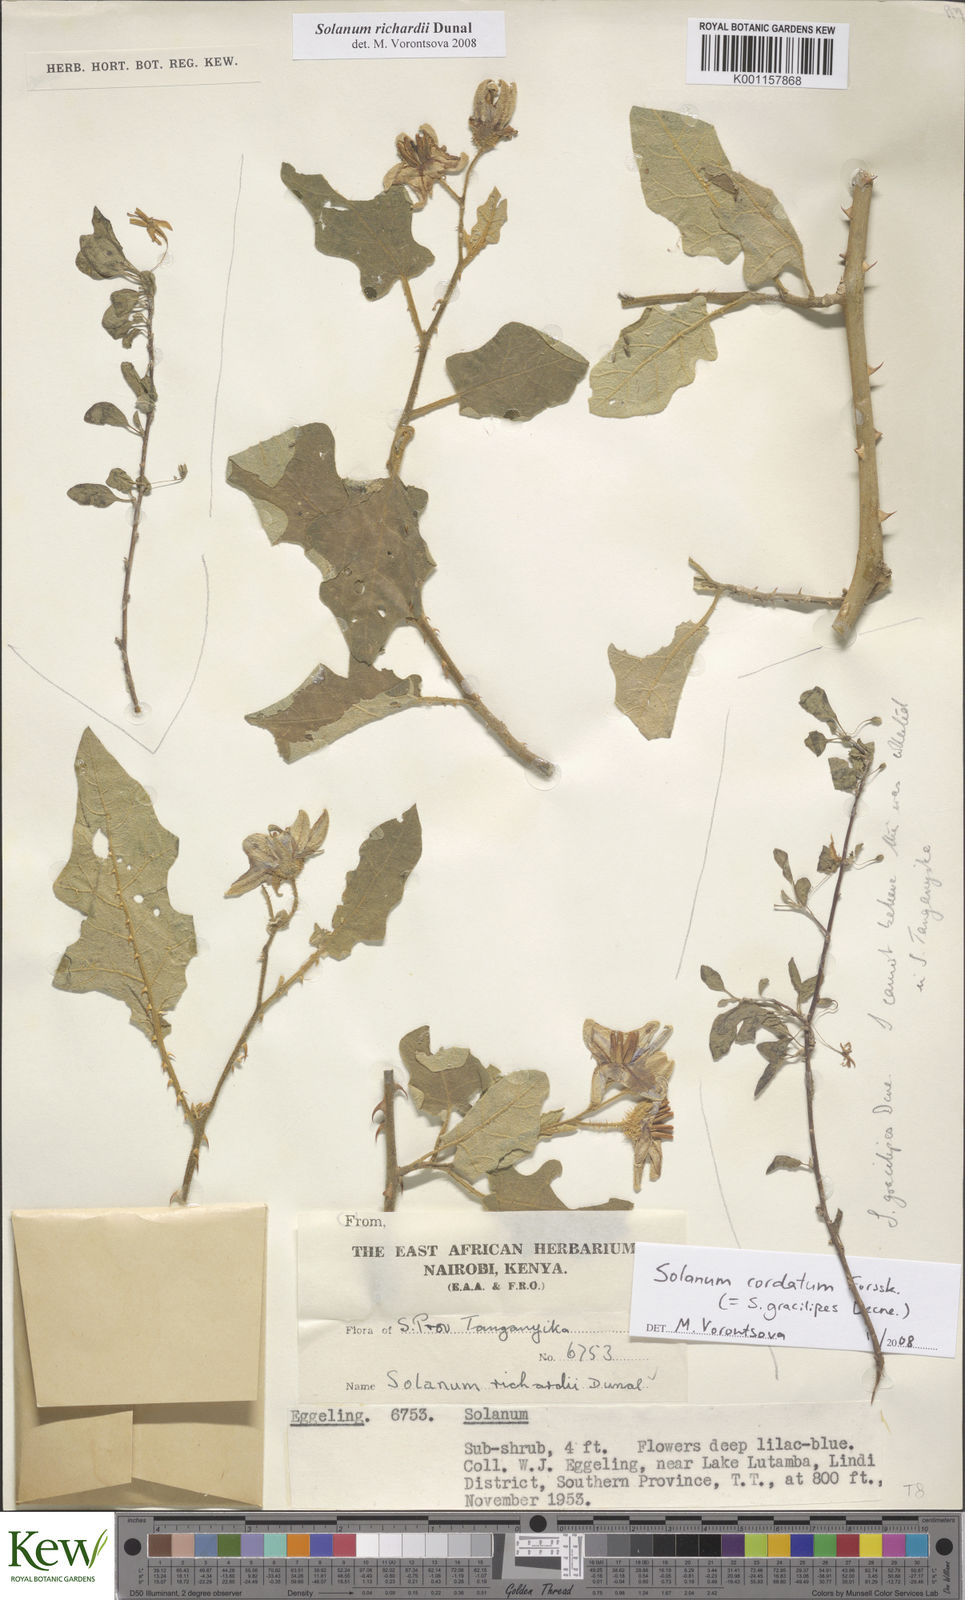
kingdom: Plantae
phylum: Tracheophyta
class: Magnoliopsida
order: Solanales
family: Solanaceae
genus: Solanum
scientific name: Solanum richardii
